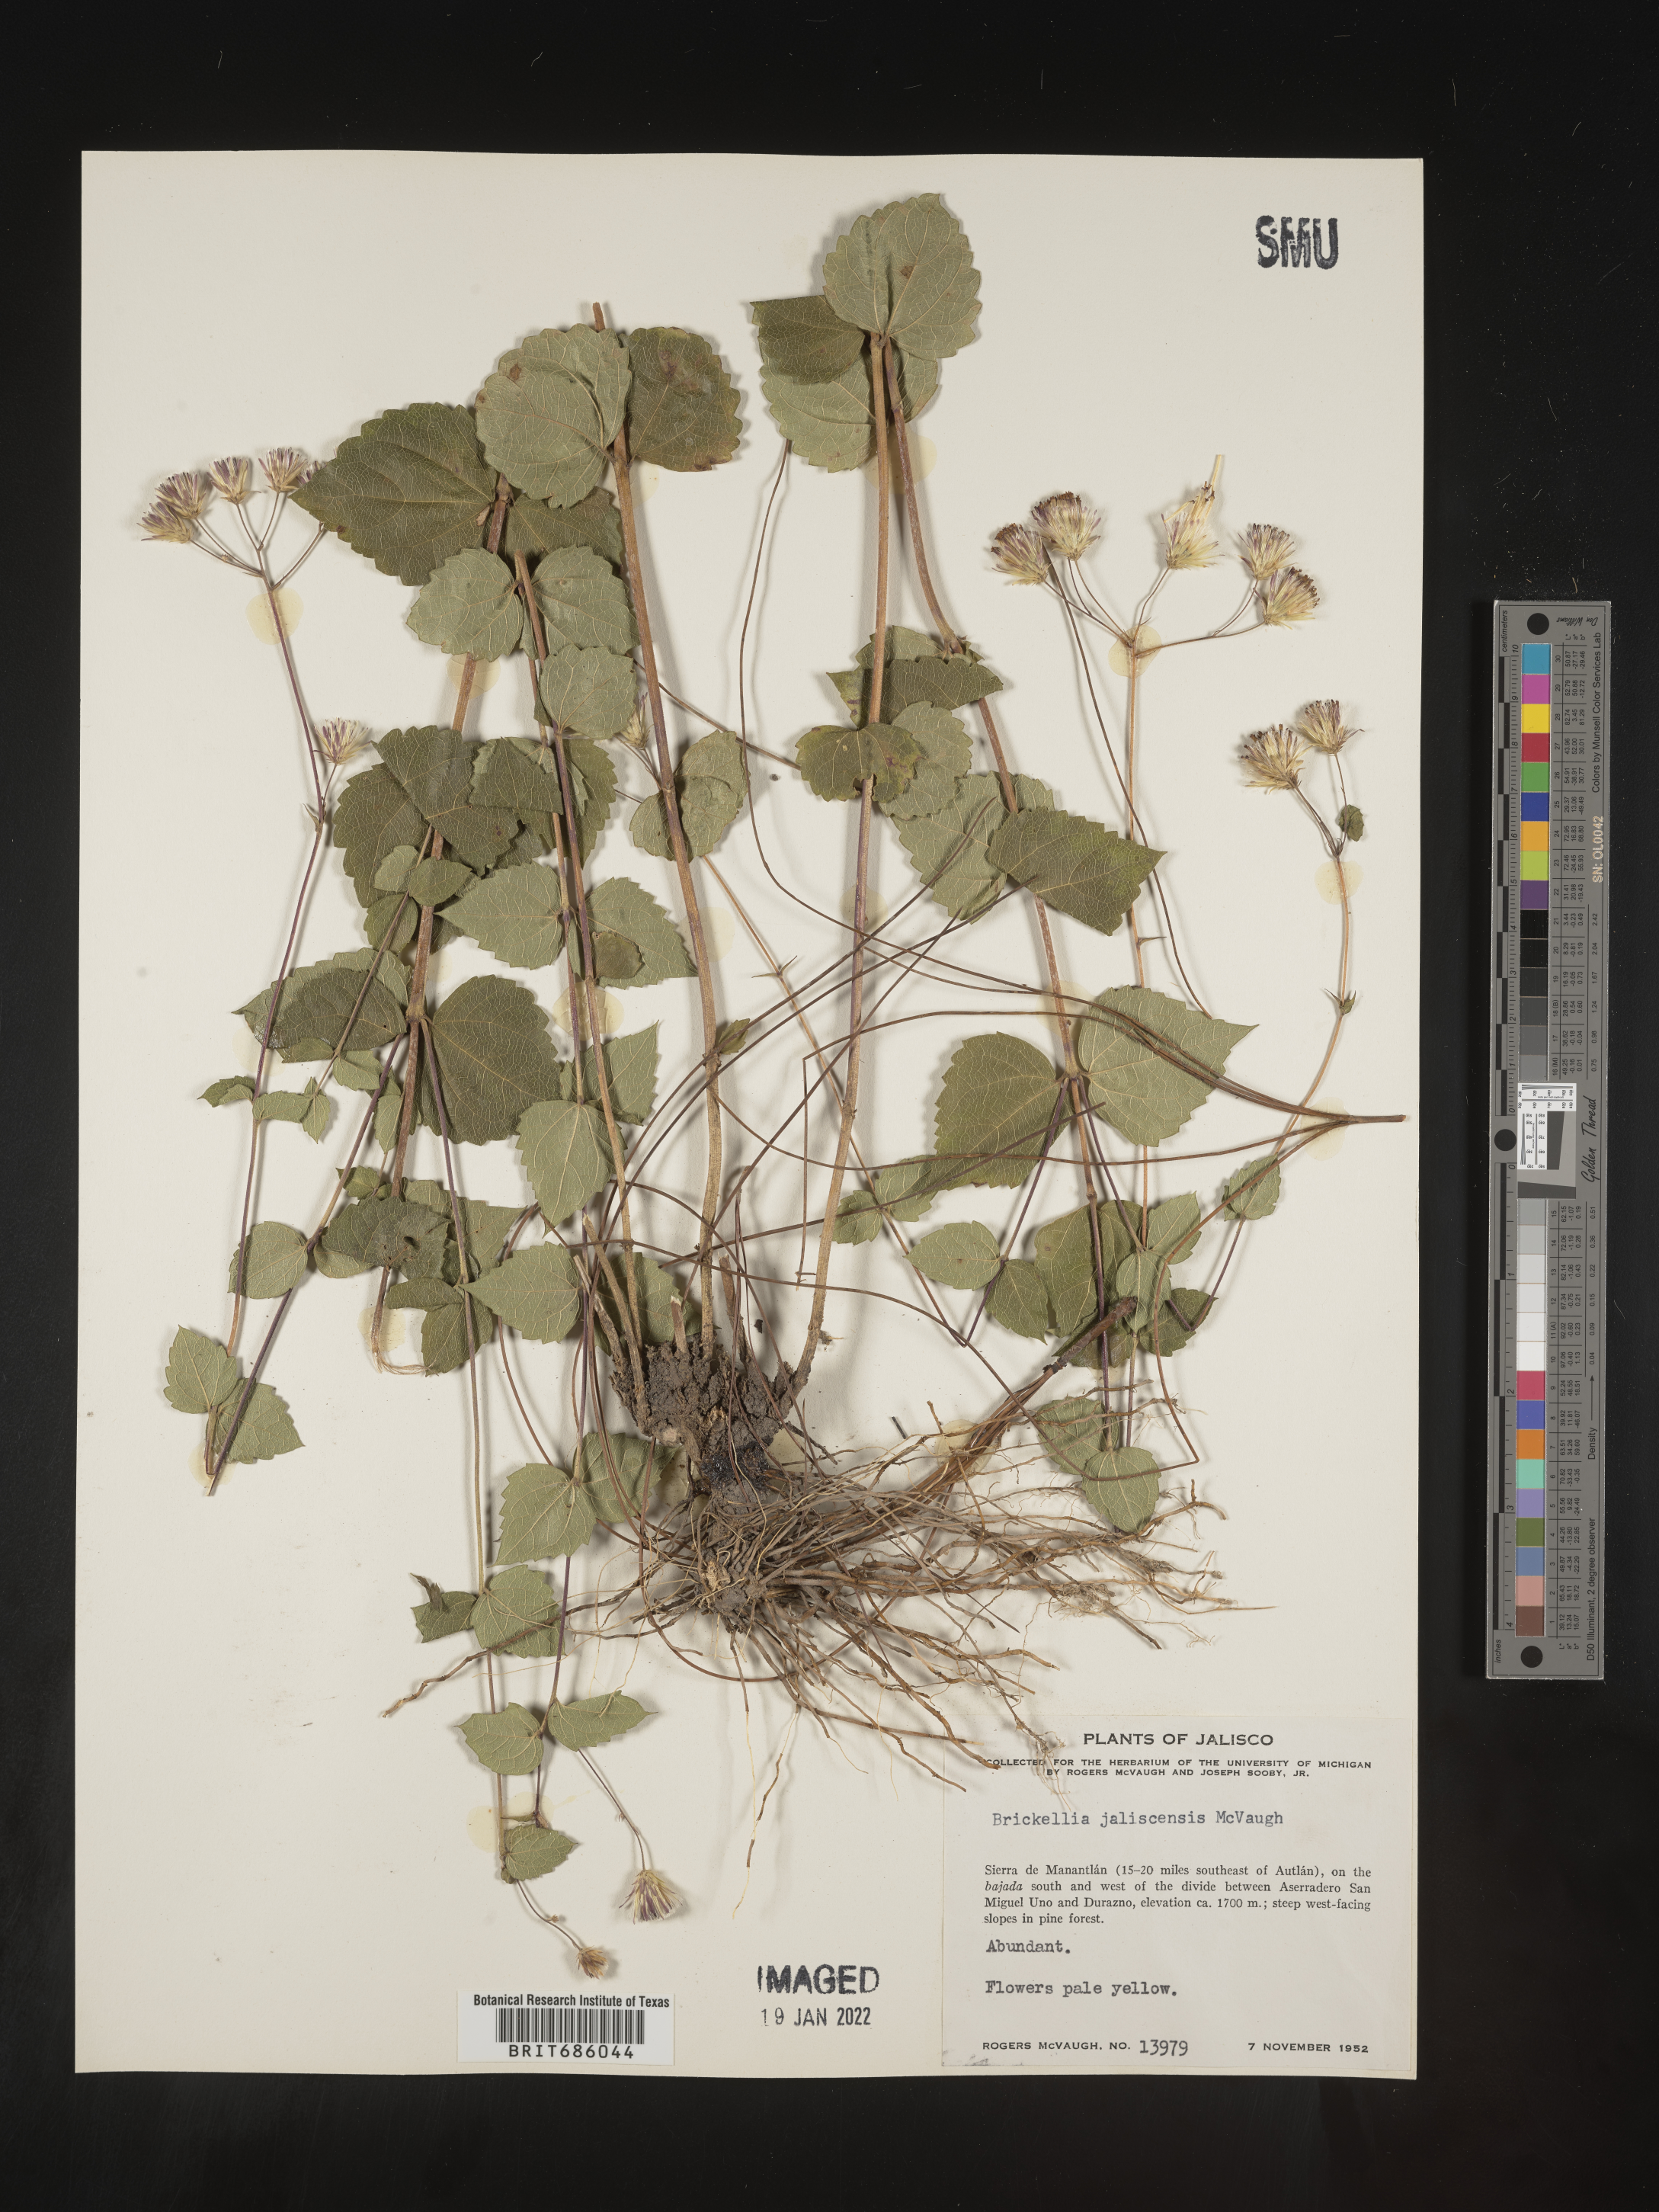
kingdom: Plantae
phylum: Tracheophyta
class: Magnoliopsida
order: Asterales
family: Asteraceae
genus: Brickellia
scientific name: Brickellia
